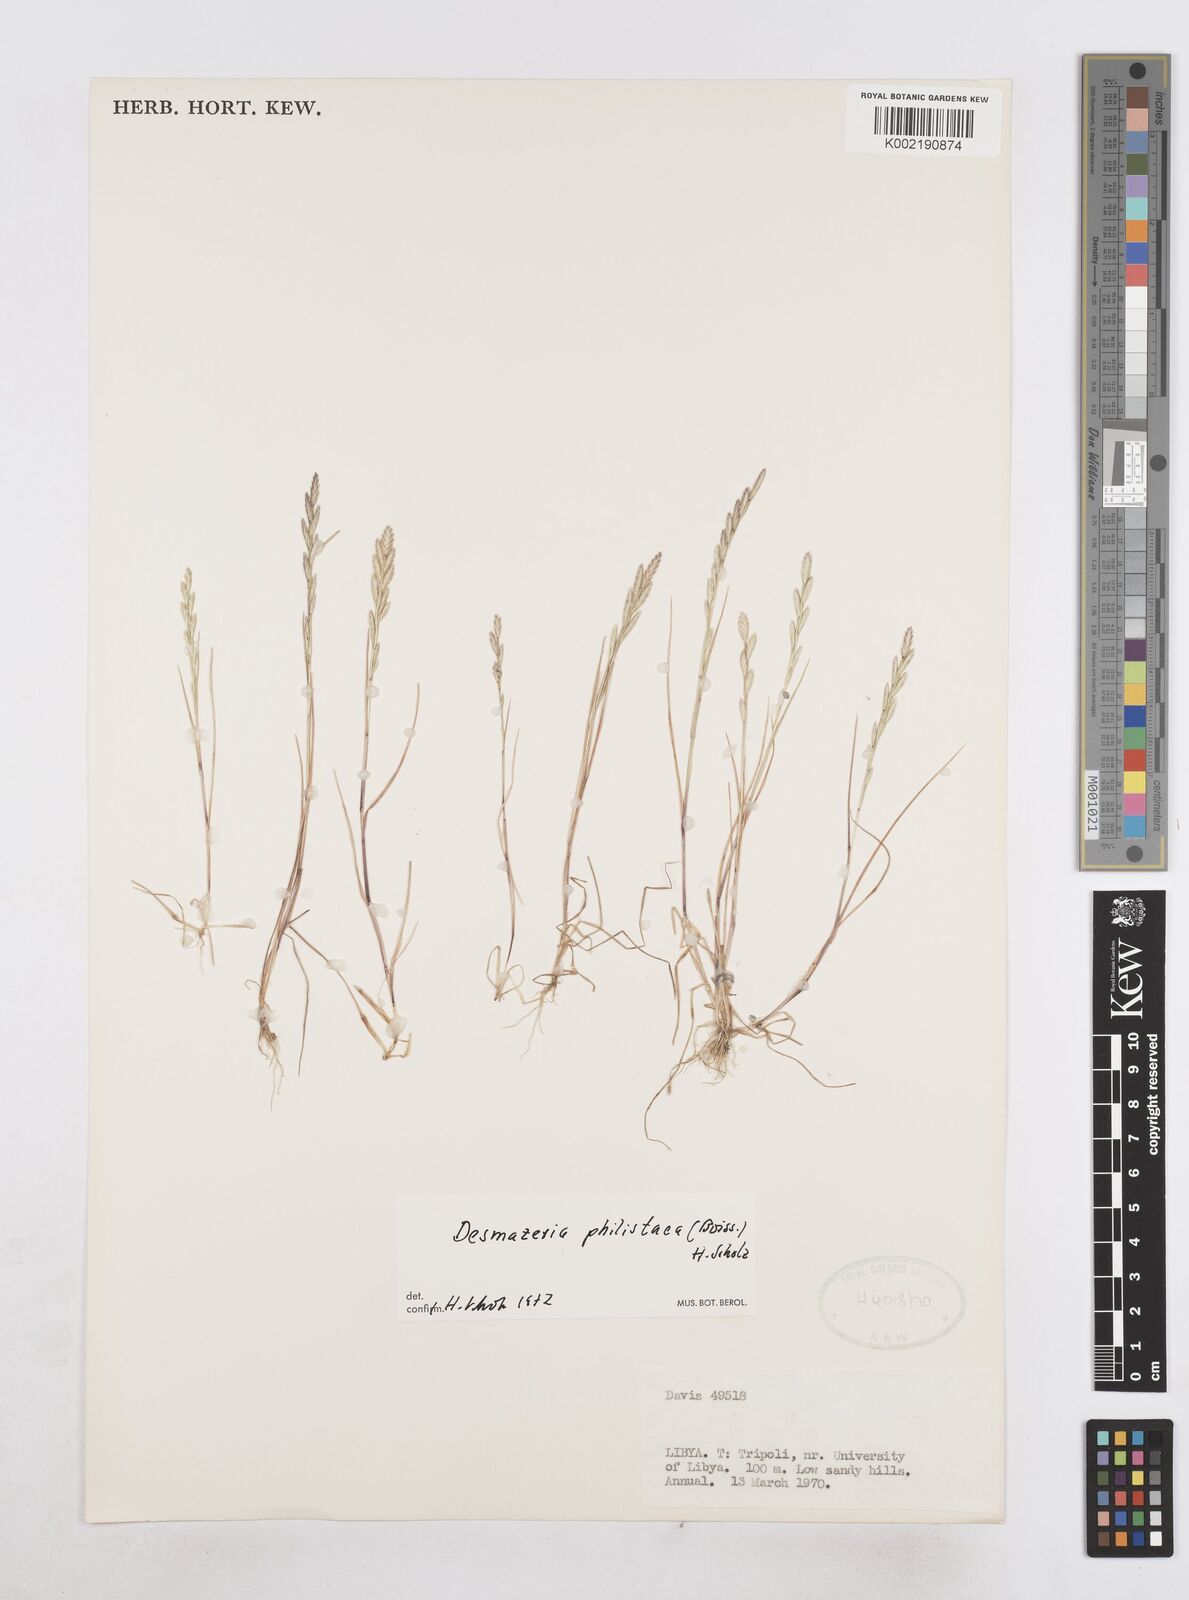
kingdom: Plantae
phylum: Tracheophyta
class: Liliopsida
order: Poales
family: Poaceae
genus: Desmazeria
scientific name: Desmazeria philistaea
